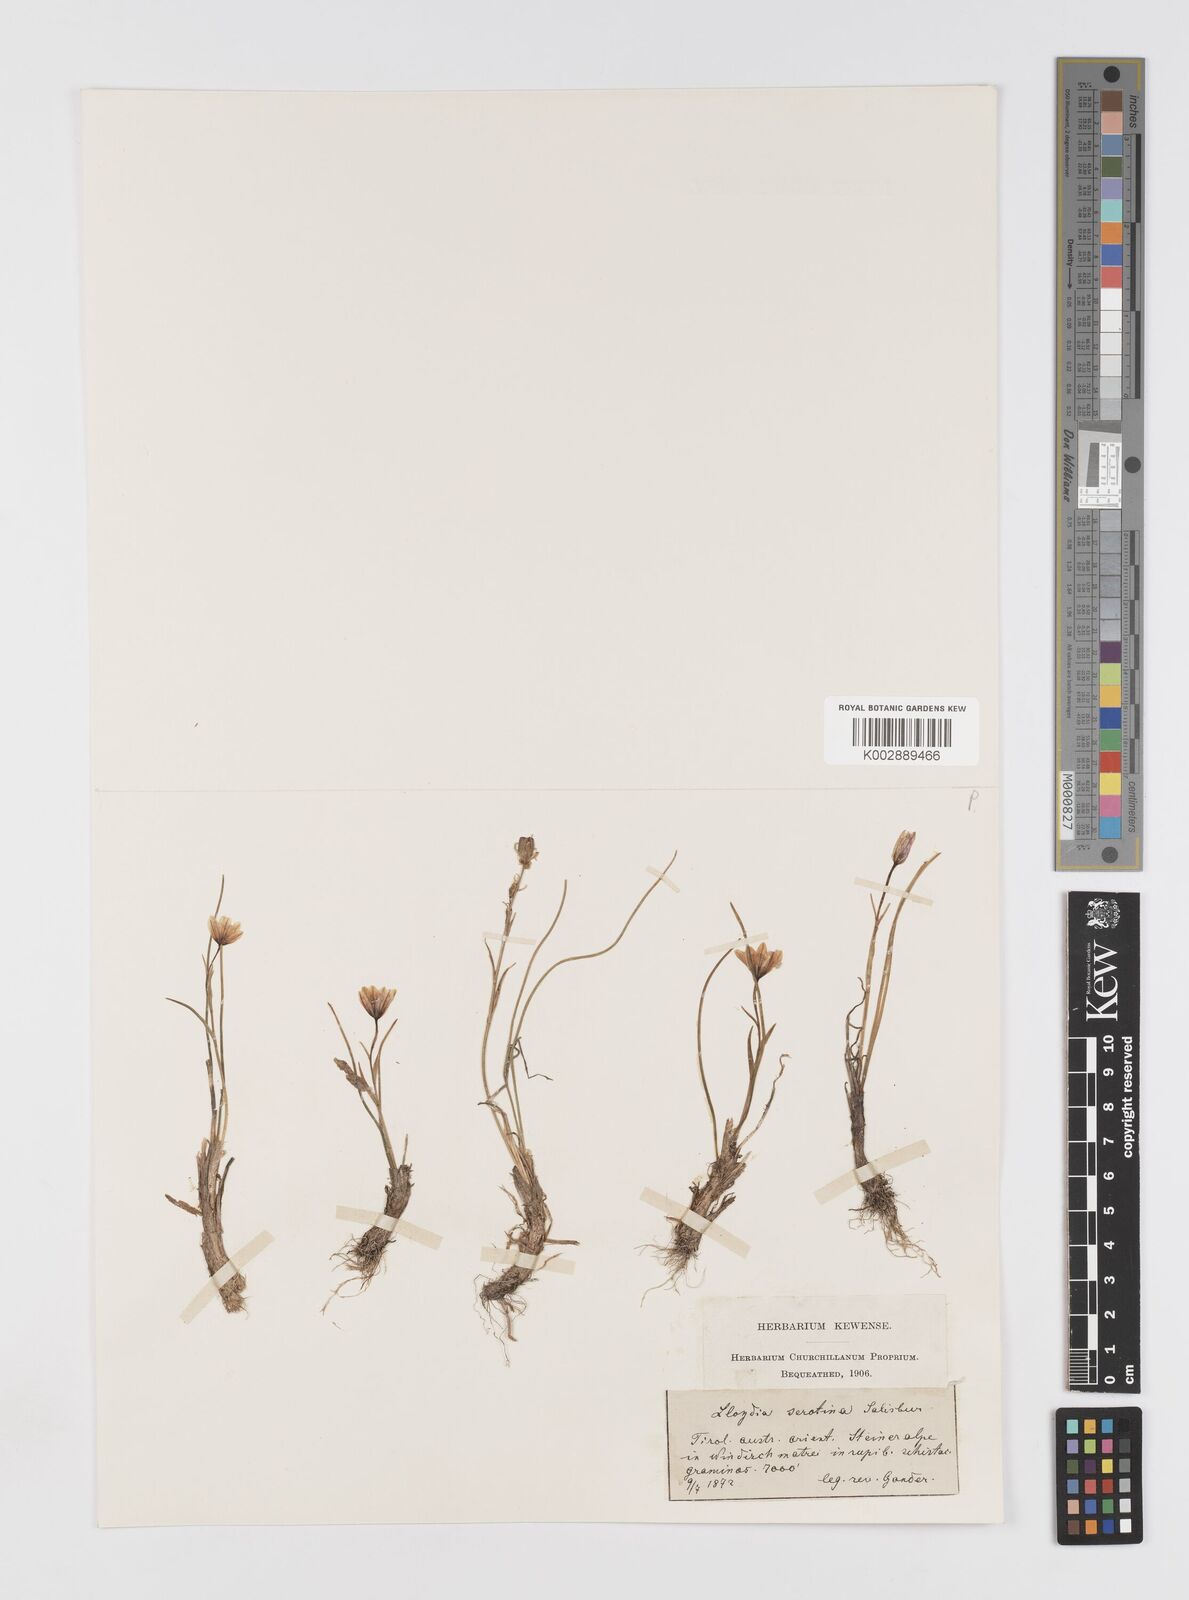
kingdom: Plantae
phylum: Tracheophyta
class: Liliopsida
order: Liliales
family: Liliaceae
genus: Gagea
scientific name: Gagea
